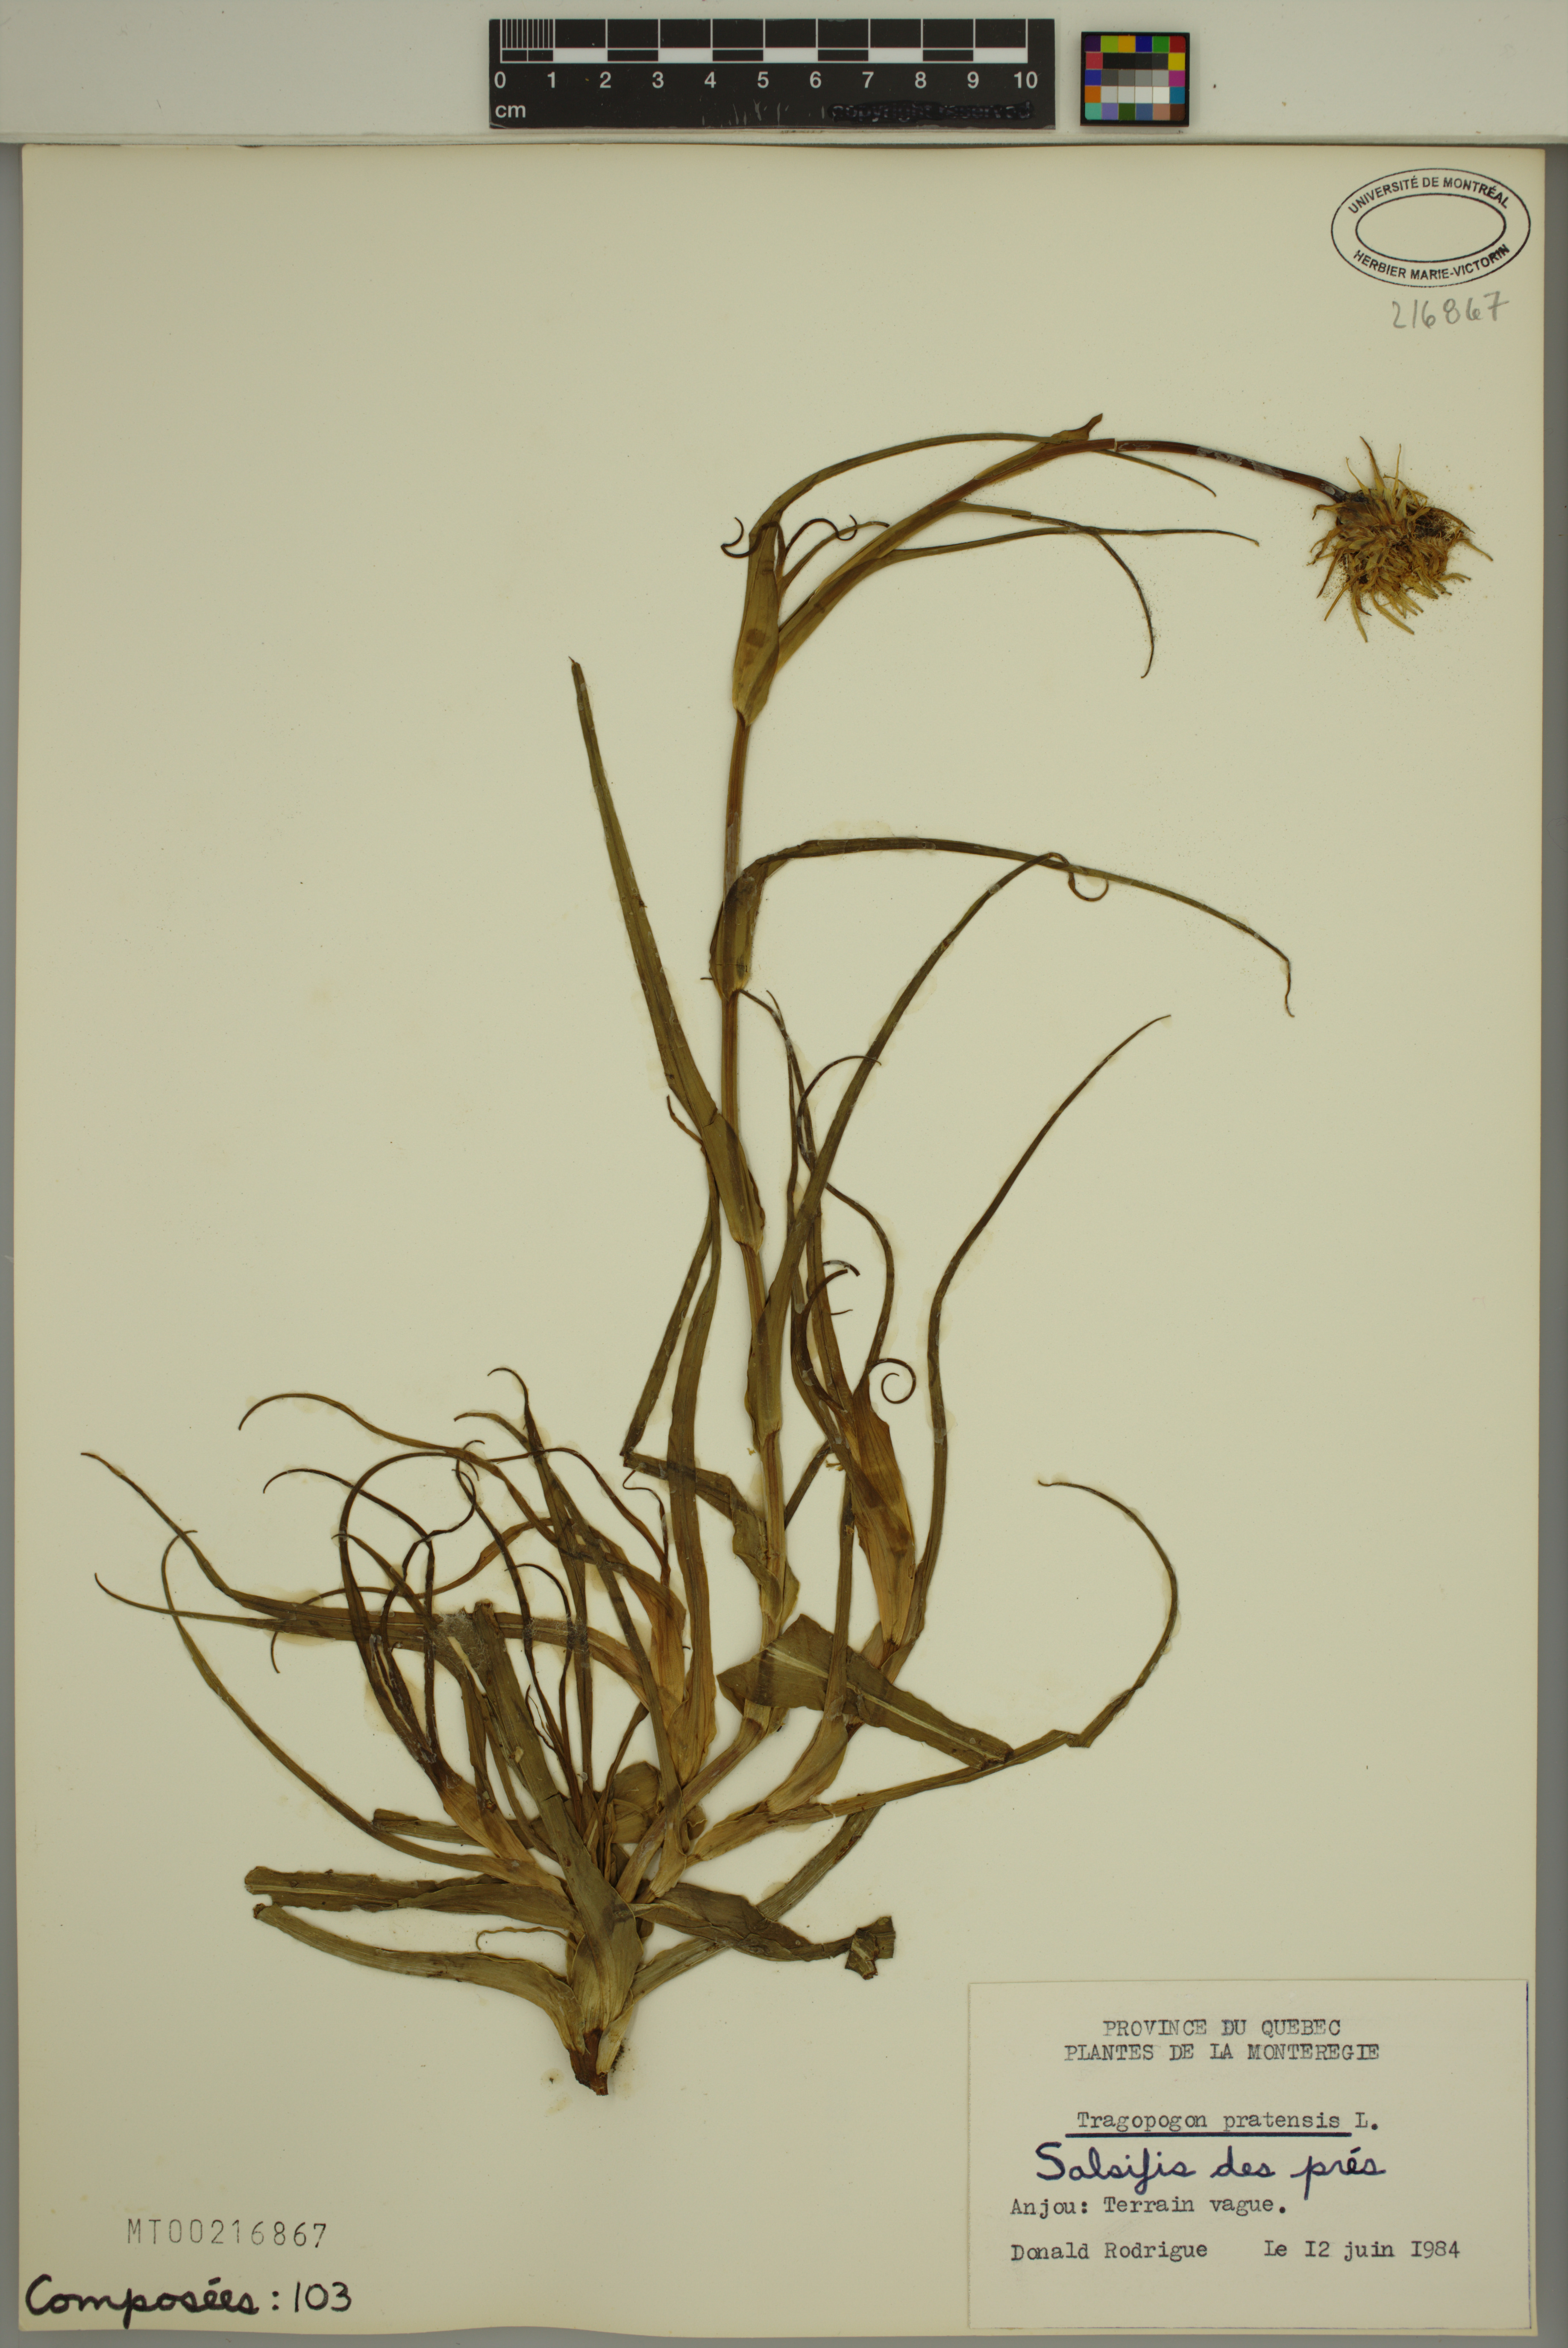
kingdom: Plantae
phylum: Tracheophyta
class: Magnoliopsida
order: Asterales
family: Asteraceae
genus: Tragopogon
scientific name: Tragopogon pratensis
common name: Goat's-beard
